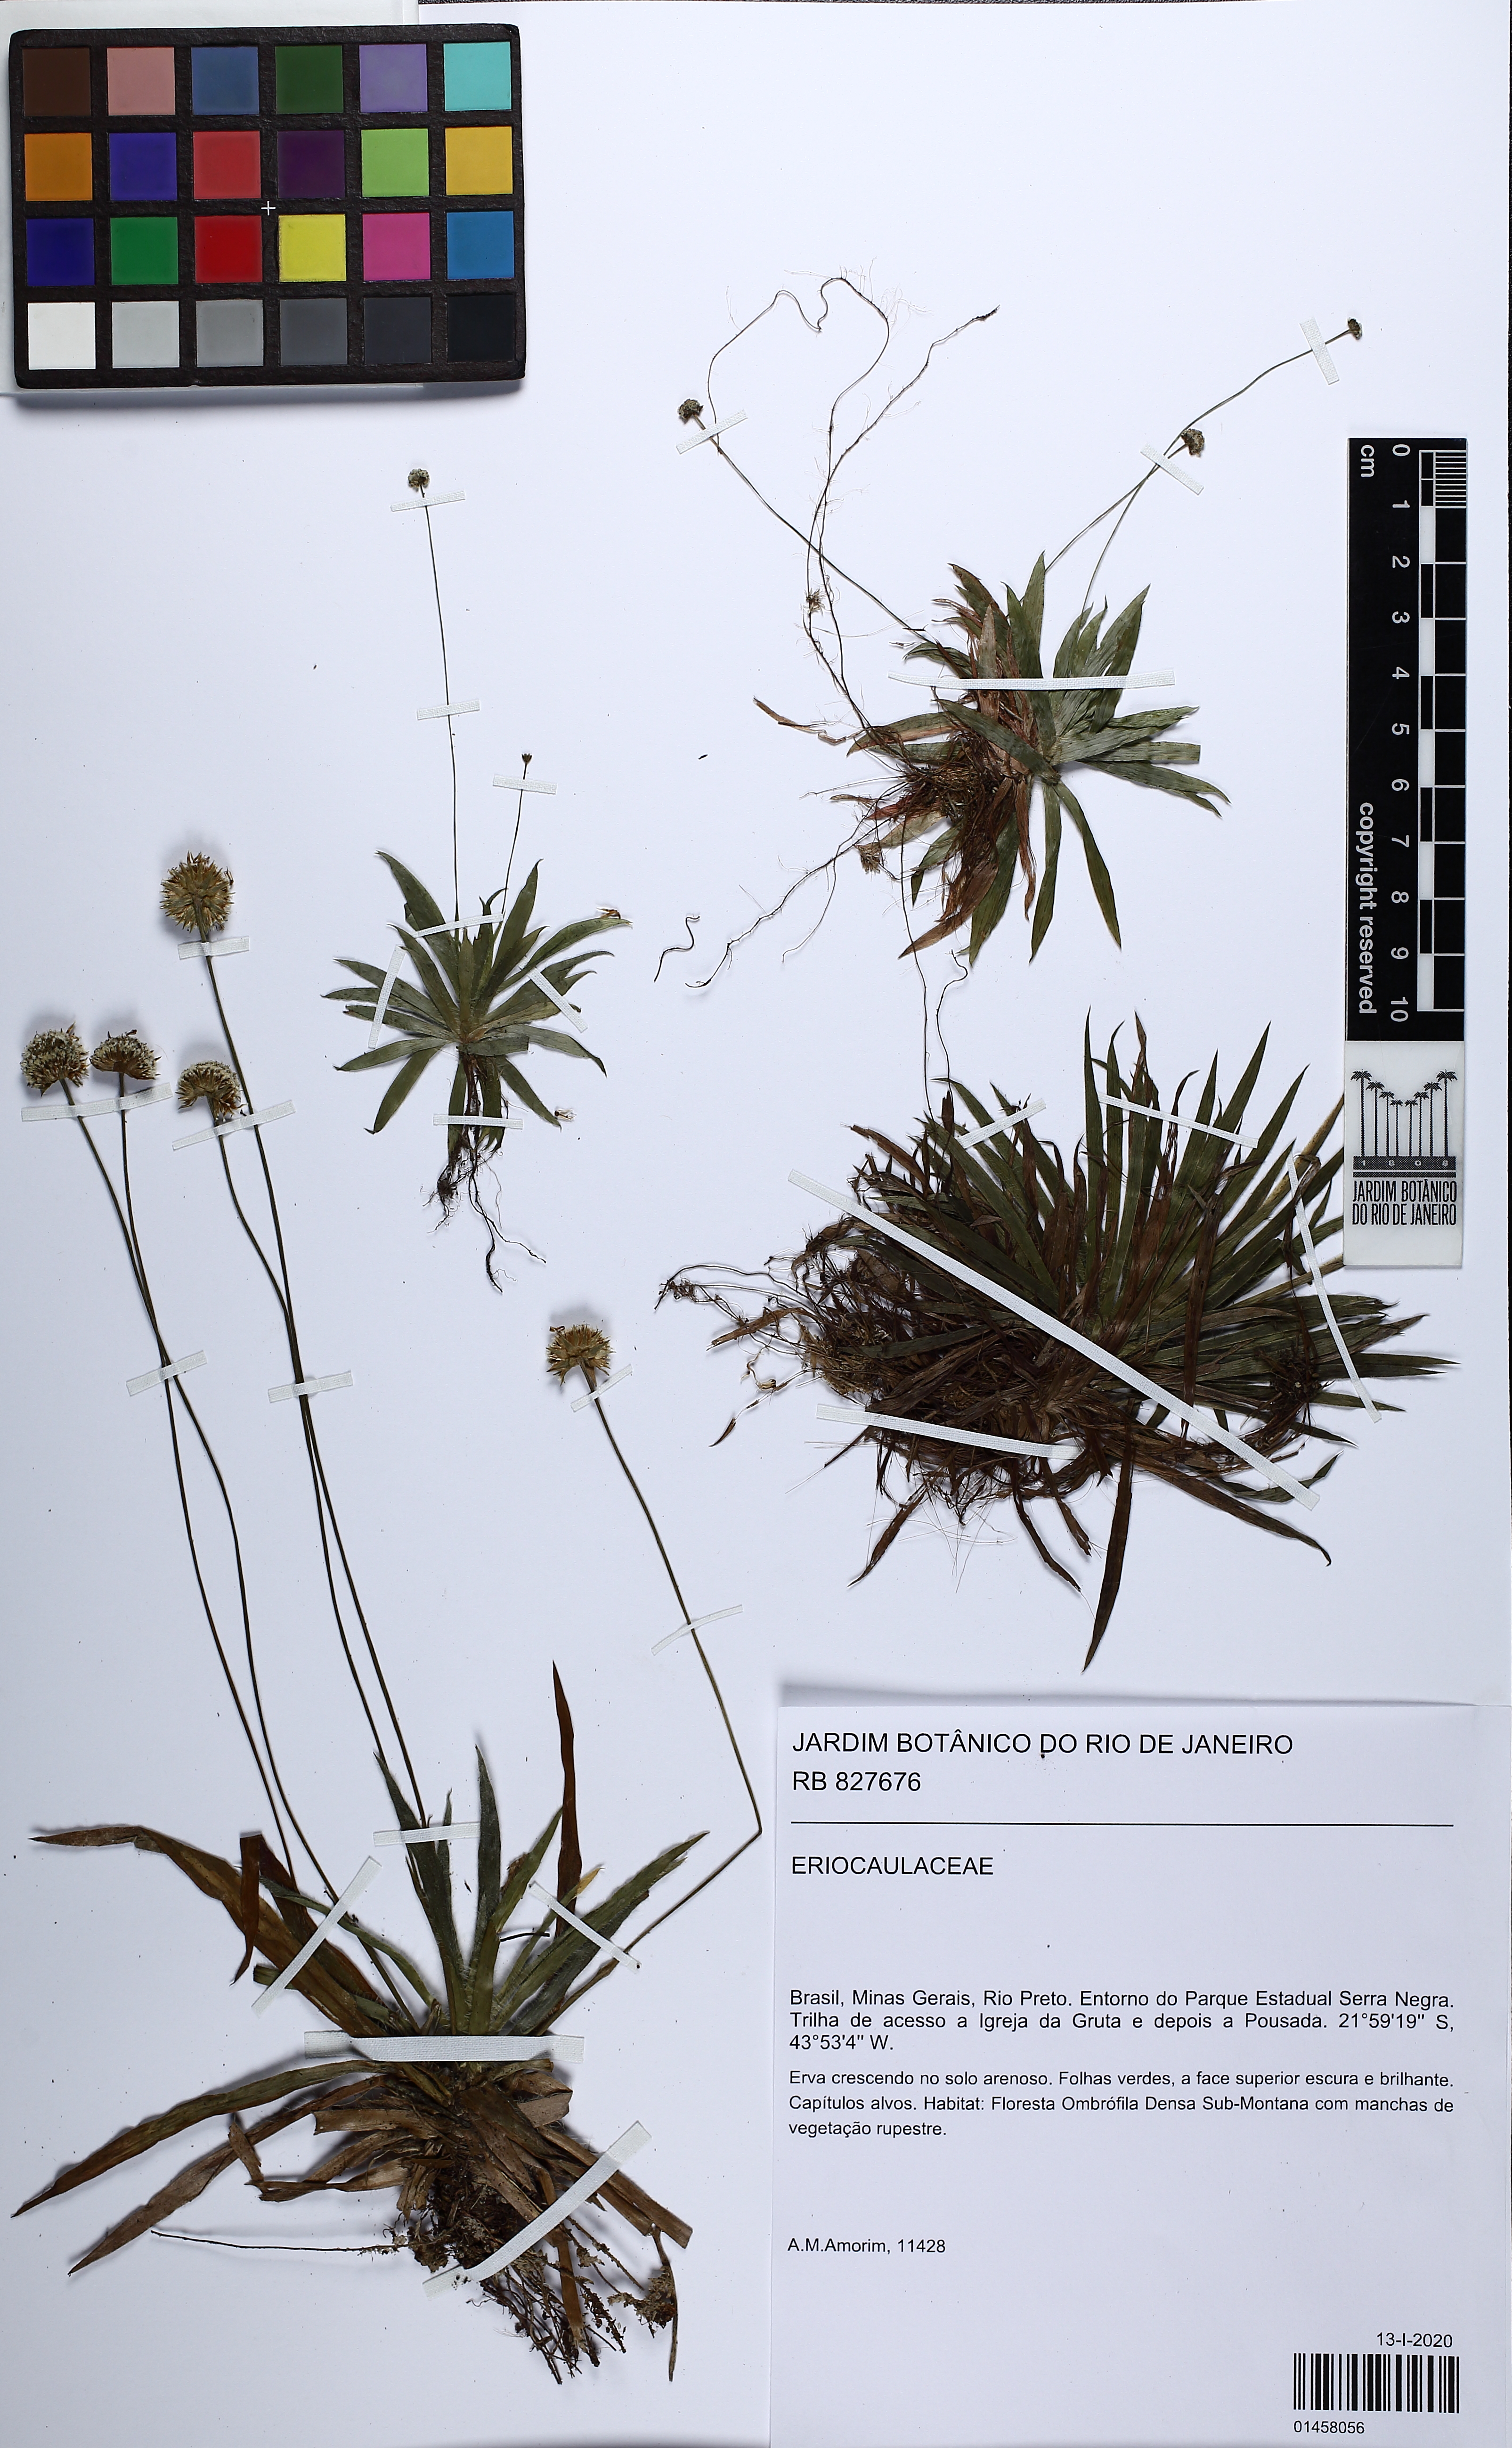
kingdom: Plantae
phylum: Tracheophyta
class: Liliopsida
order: Poales
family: Eriocaulaceae
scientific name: Eriocaulaceae
